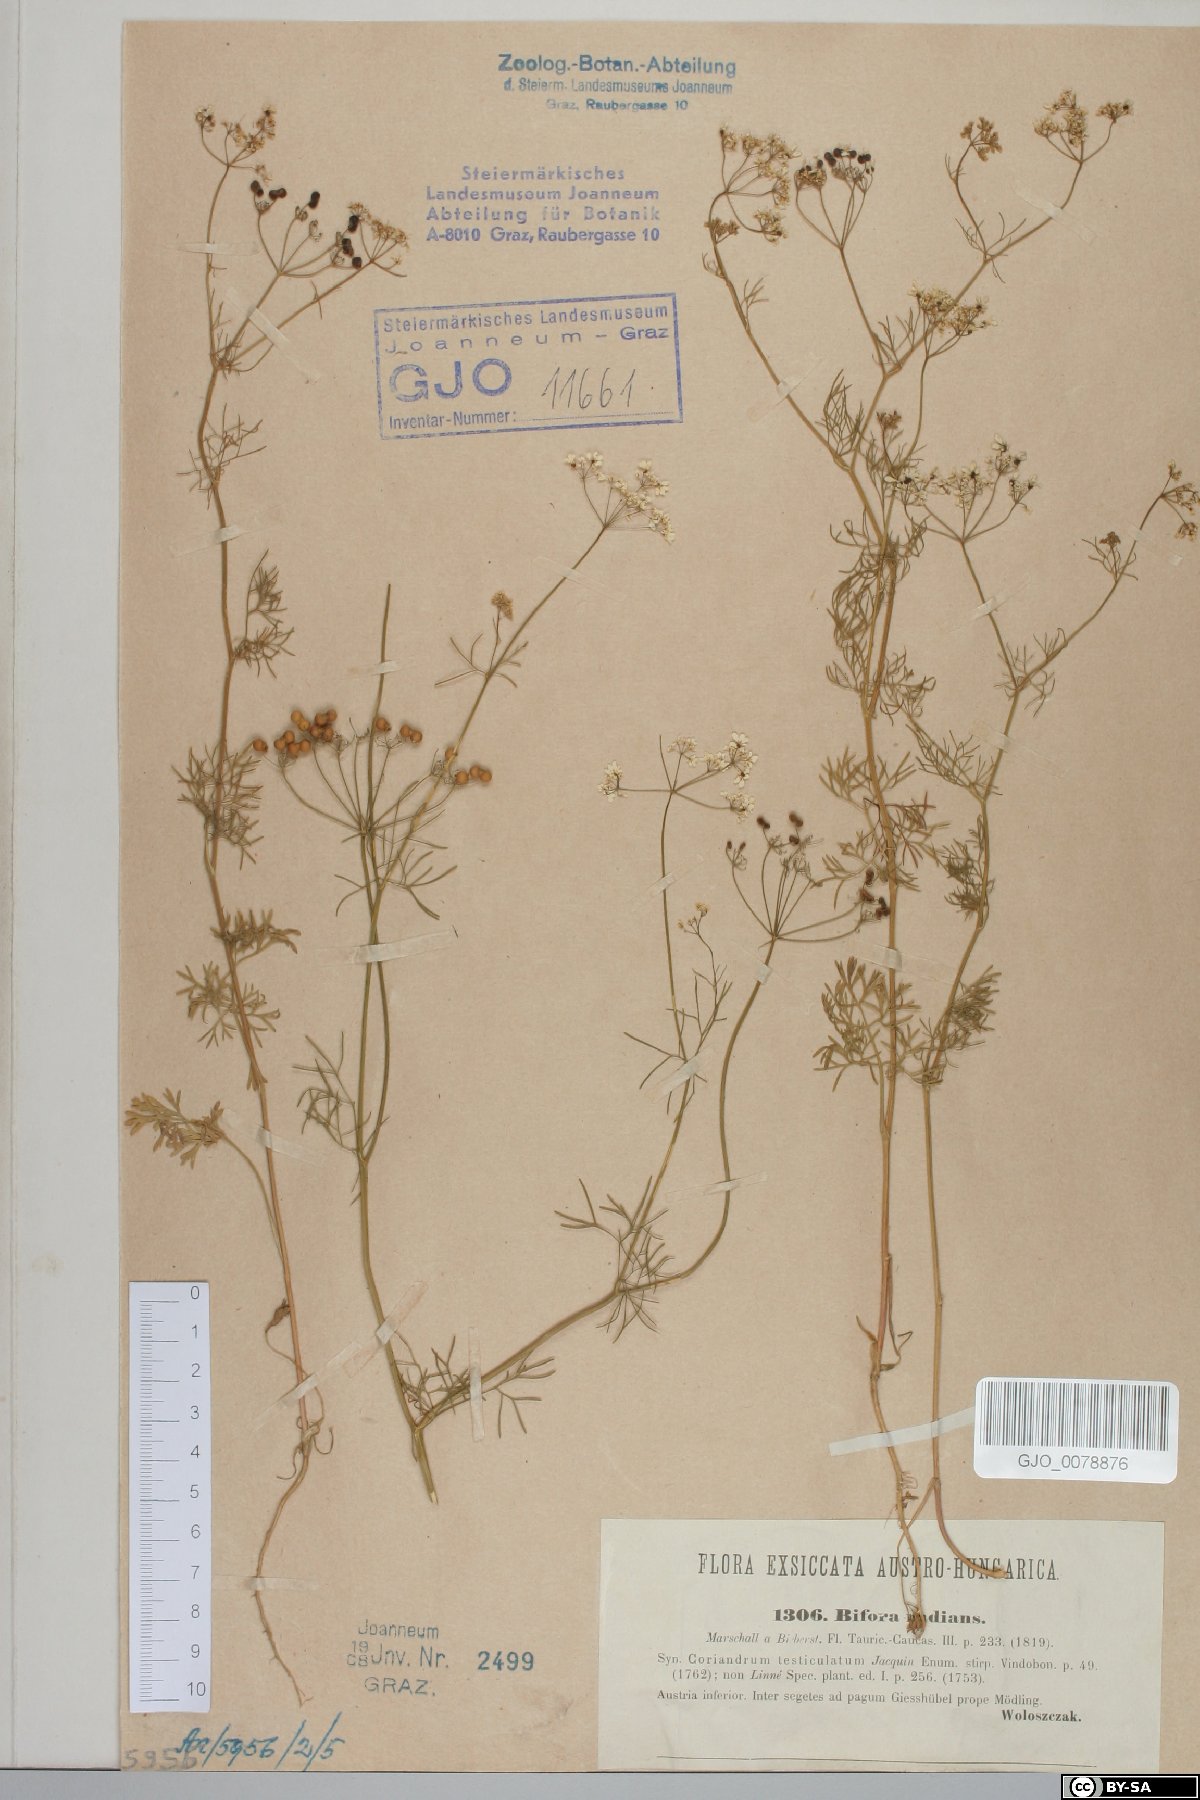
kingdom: Plantae
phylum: Tracheophyta
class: Magnoliopsida
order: Apiales
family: Apiaceae
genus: Bifora
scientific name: Bifora radians
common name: Wild bishop
